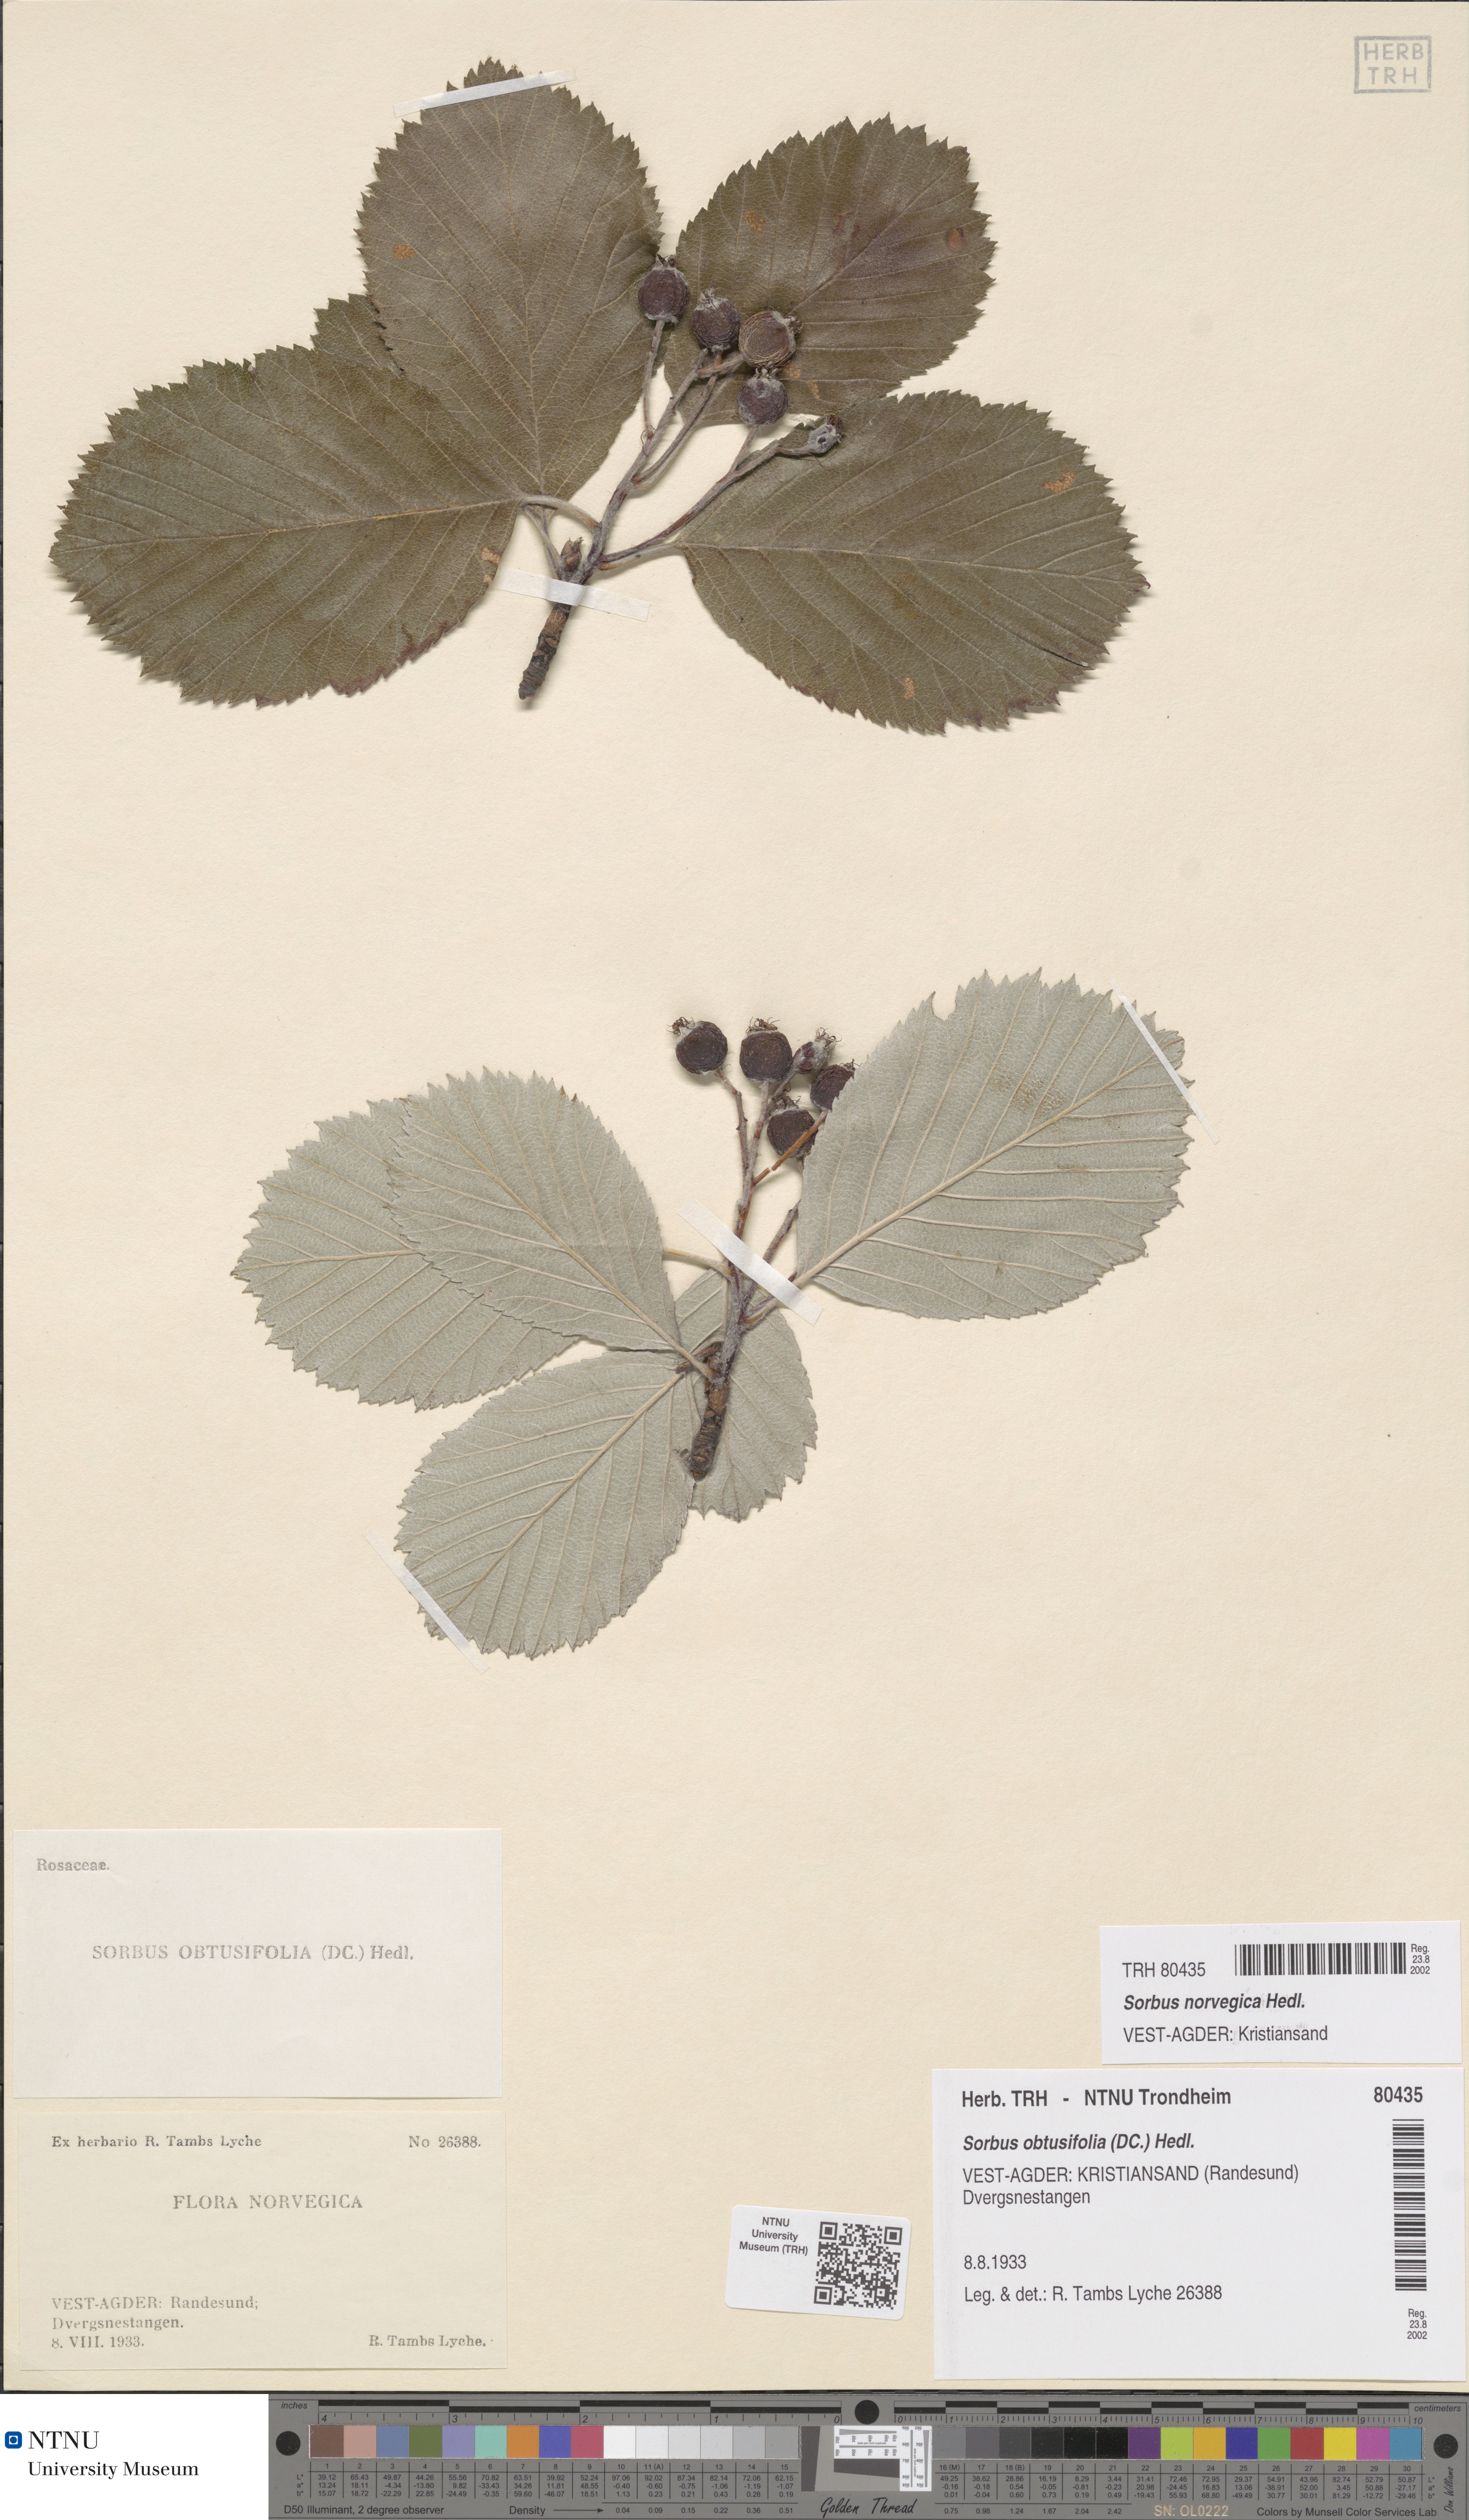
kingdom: Plantae
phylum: Tracheophyta
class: Magnoliopsida
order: Rosales
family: Rosaceae
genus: Aria
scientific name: Aria obtusifolia
